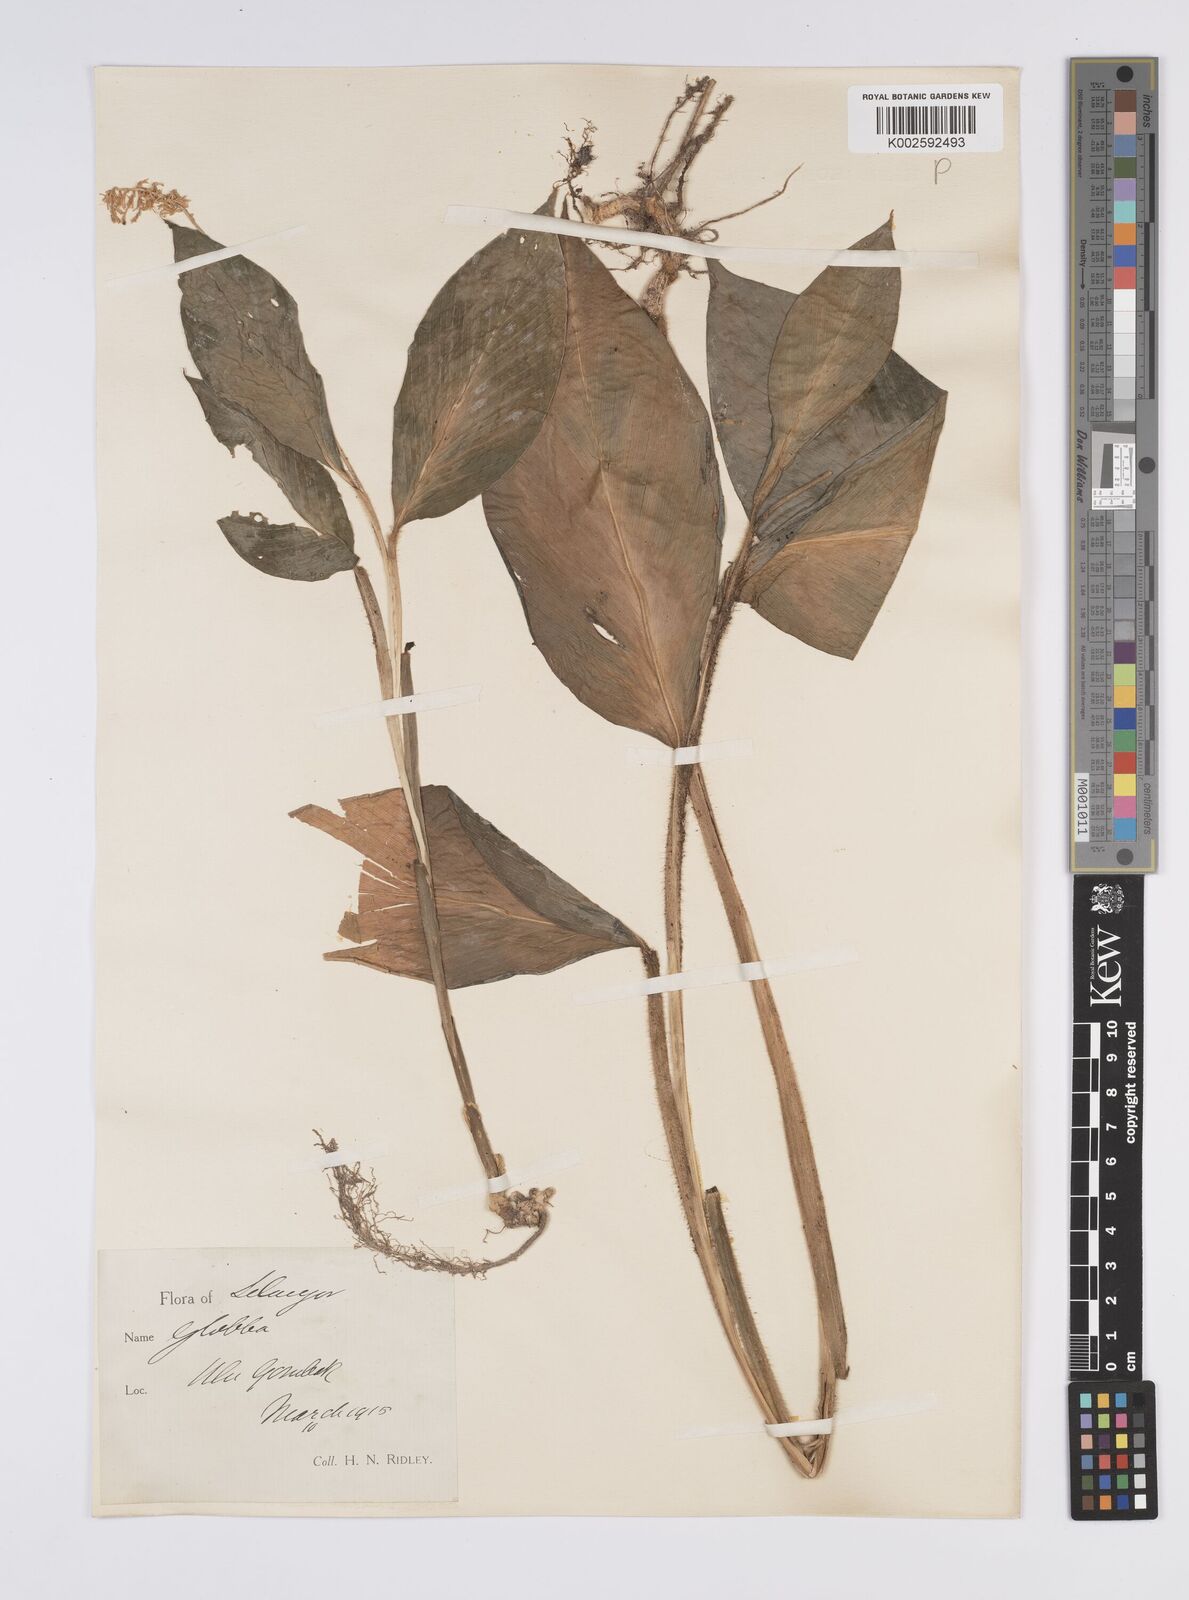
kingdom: Plantae
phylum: Tracheophyta
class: Liliopsida
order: Zingiberales
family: Zingiberaceae
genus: Globba
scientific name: Globba aurantiaca
